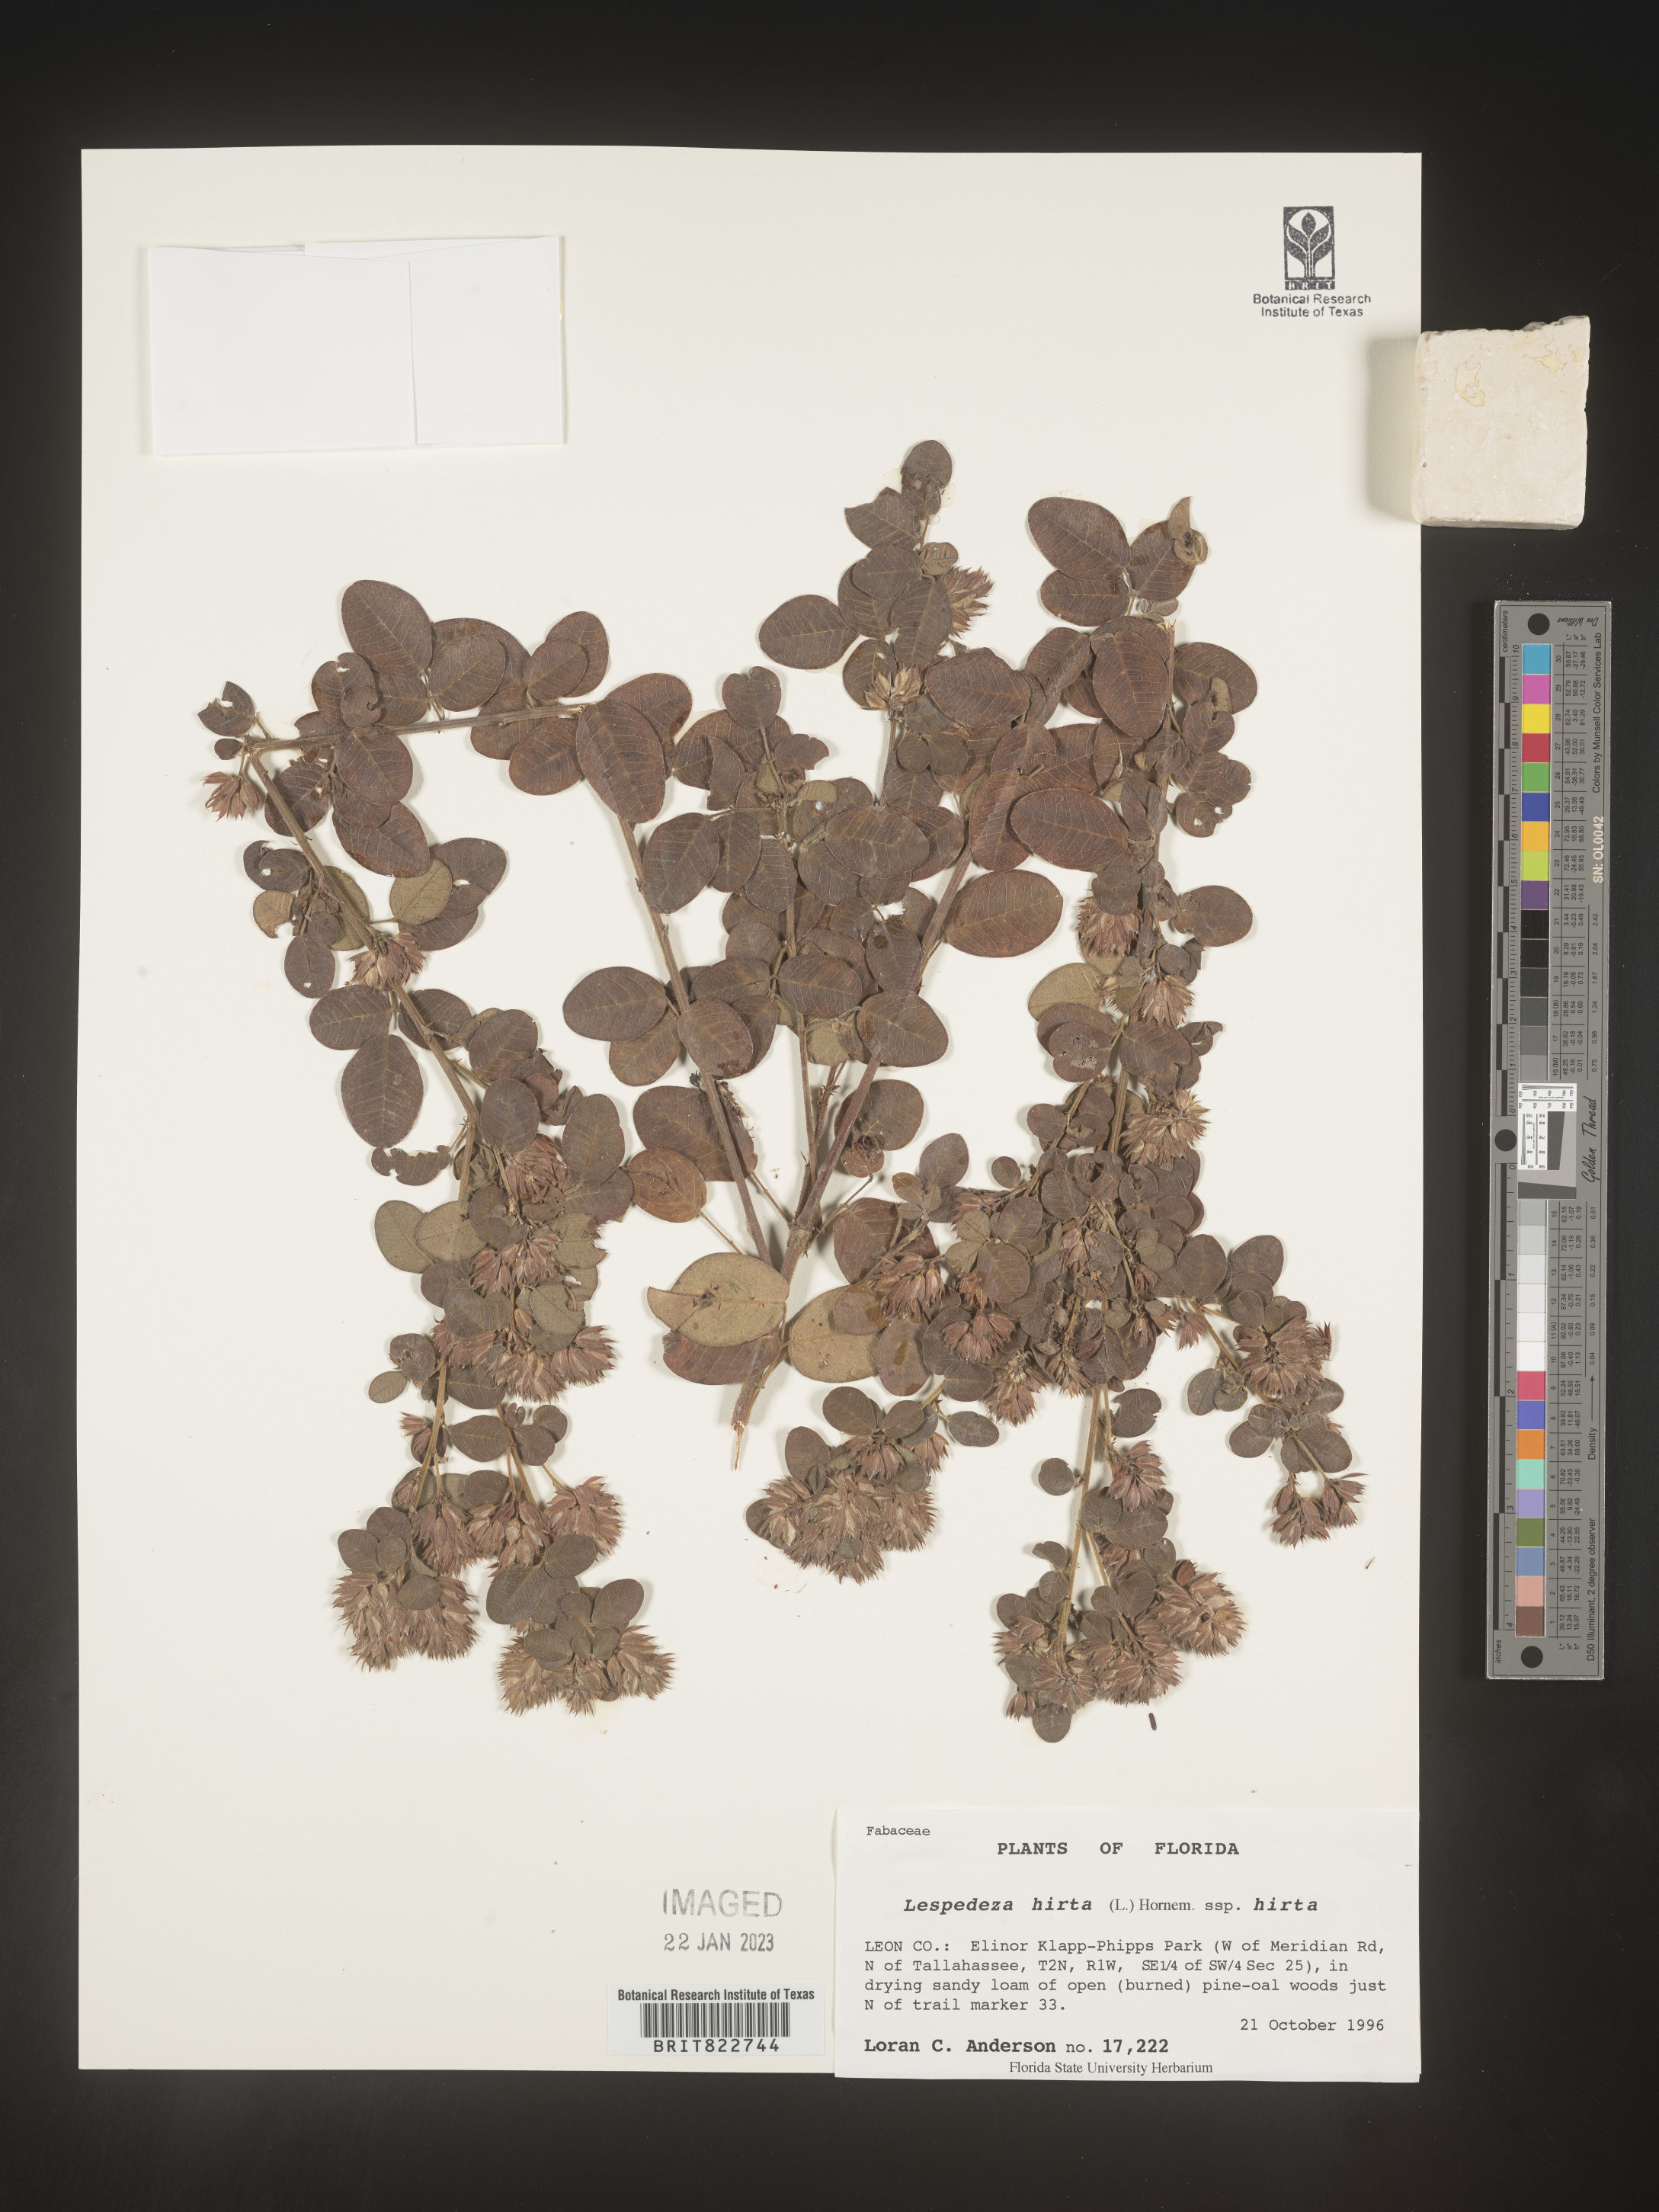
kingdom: Plantae
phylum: Tracheophyta
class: Magnoliopsida
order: Fabales
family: Fabaceae
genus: Lespedeza
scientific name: Lespedeza hirta
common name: Hairy lespedeza
